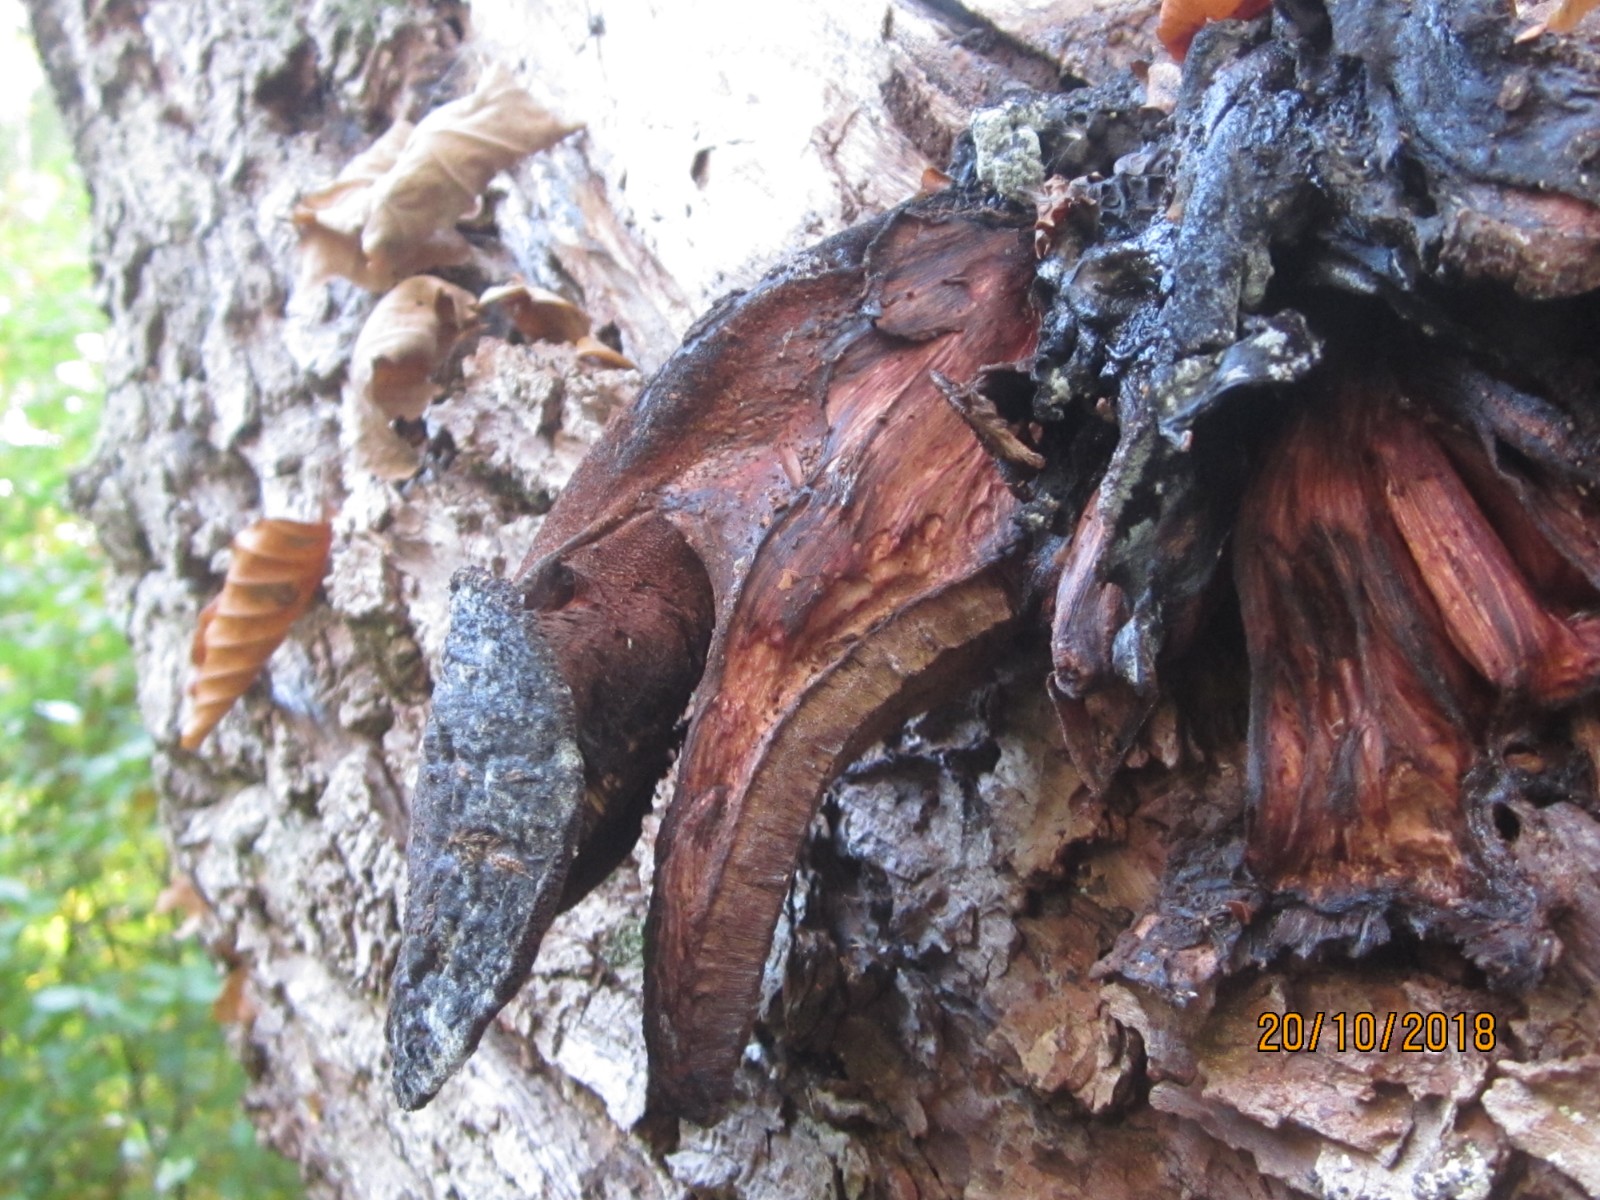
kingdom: Fungi
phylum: Basidiomycota
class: Agaricomycetes
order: Agaricales
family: Fistulinaceae
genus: Fistulina
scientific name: Fistulina hepatica
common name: oksetunge
